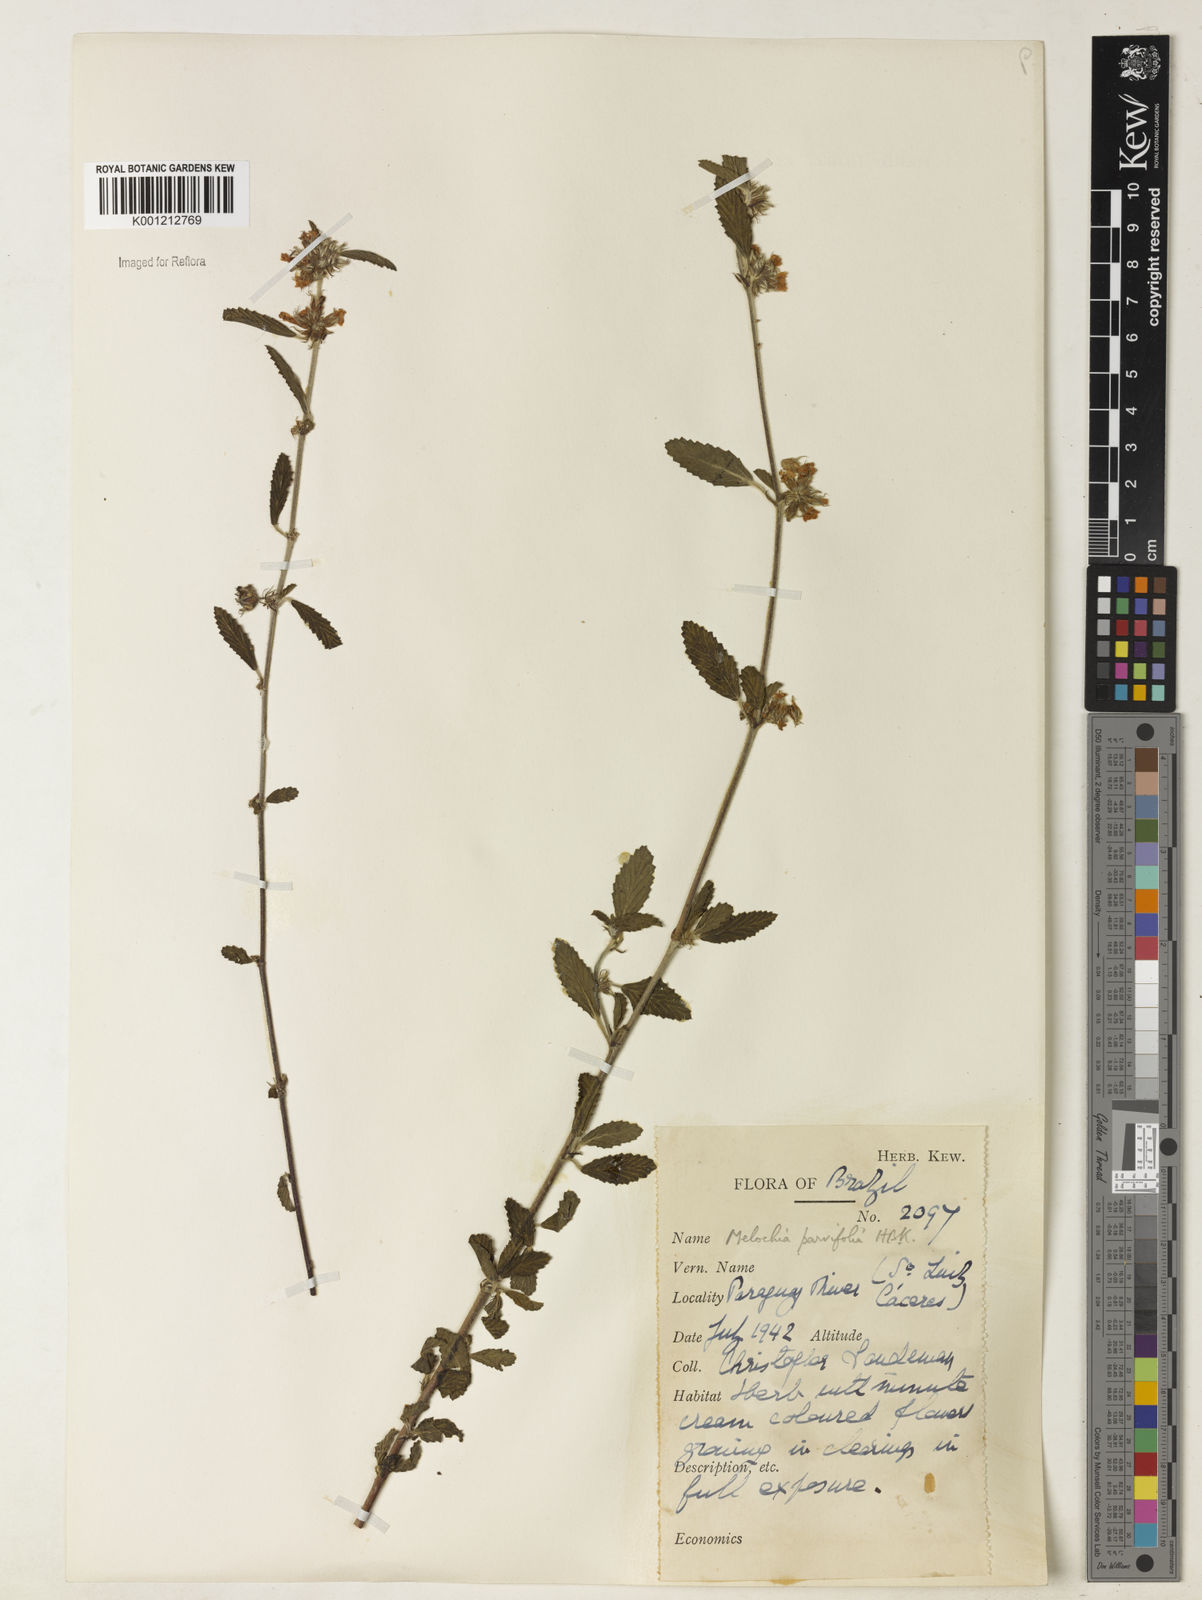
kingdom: Plantae
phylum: Tracheophyta
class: Magnoliopsida
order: Malvales
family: Malvaceae
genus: Melochia
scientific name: Melochia parvifolia
